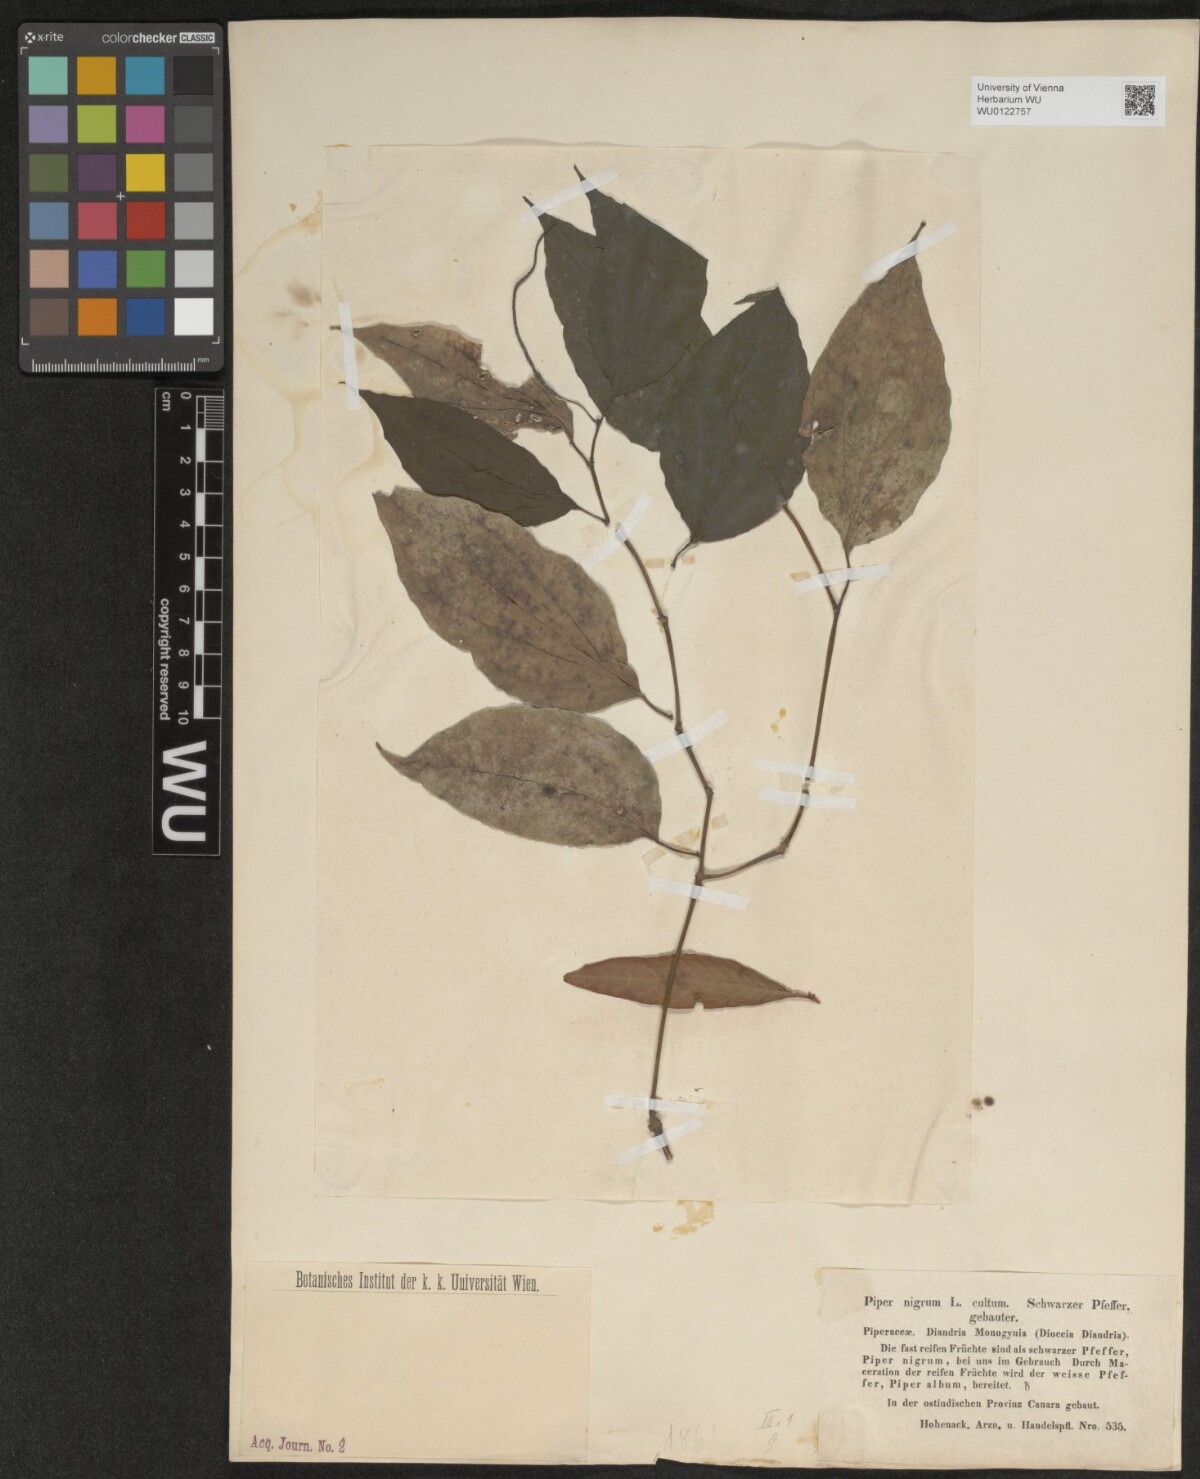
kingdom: Plantae
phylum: Tracheophyta
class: Magnoliopsida
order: Piperales
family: Piperaceae
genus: Piper
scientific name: Piper nigrum
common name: Black pepper
